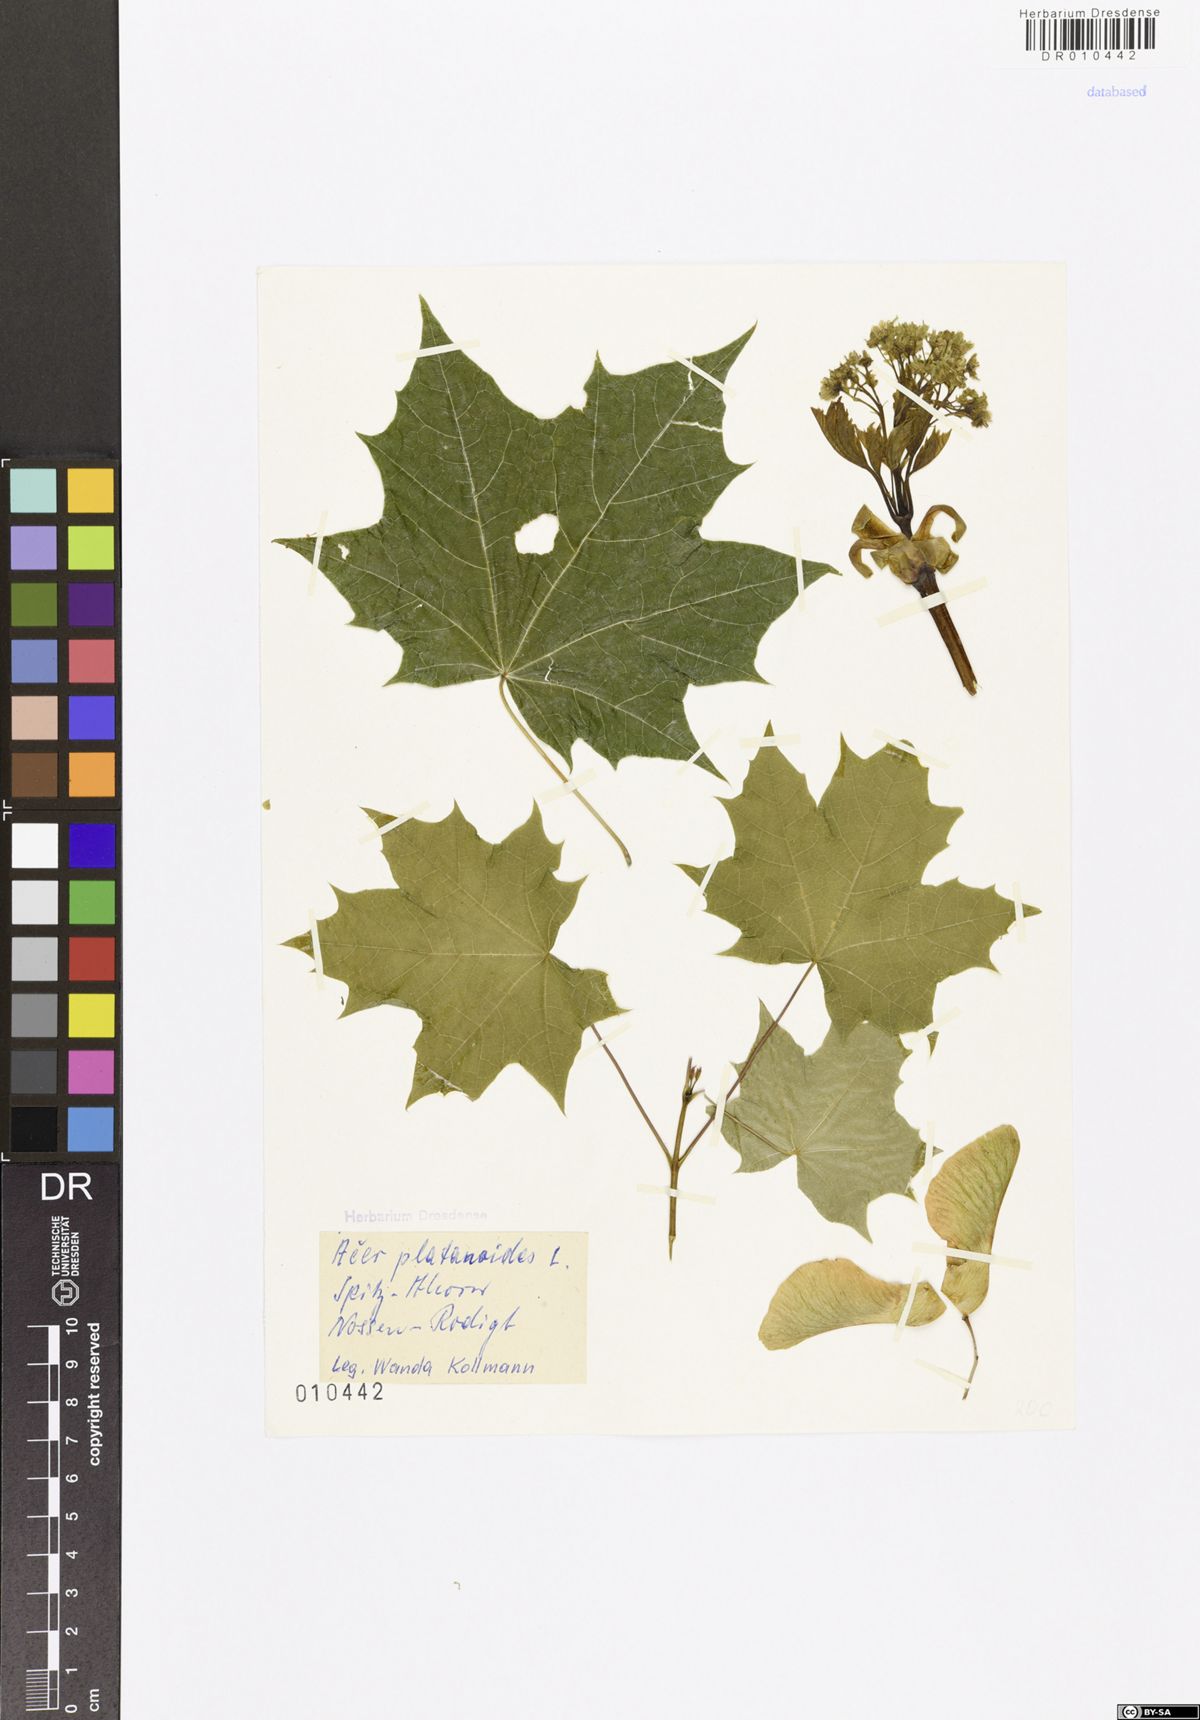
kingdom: Plantae
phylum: Tracheophyta
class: Magnoliopsida
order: Sapindales
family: Sapindaceae
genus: Acer
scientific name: Acer platanoides
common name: Norway maple
